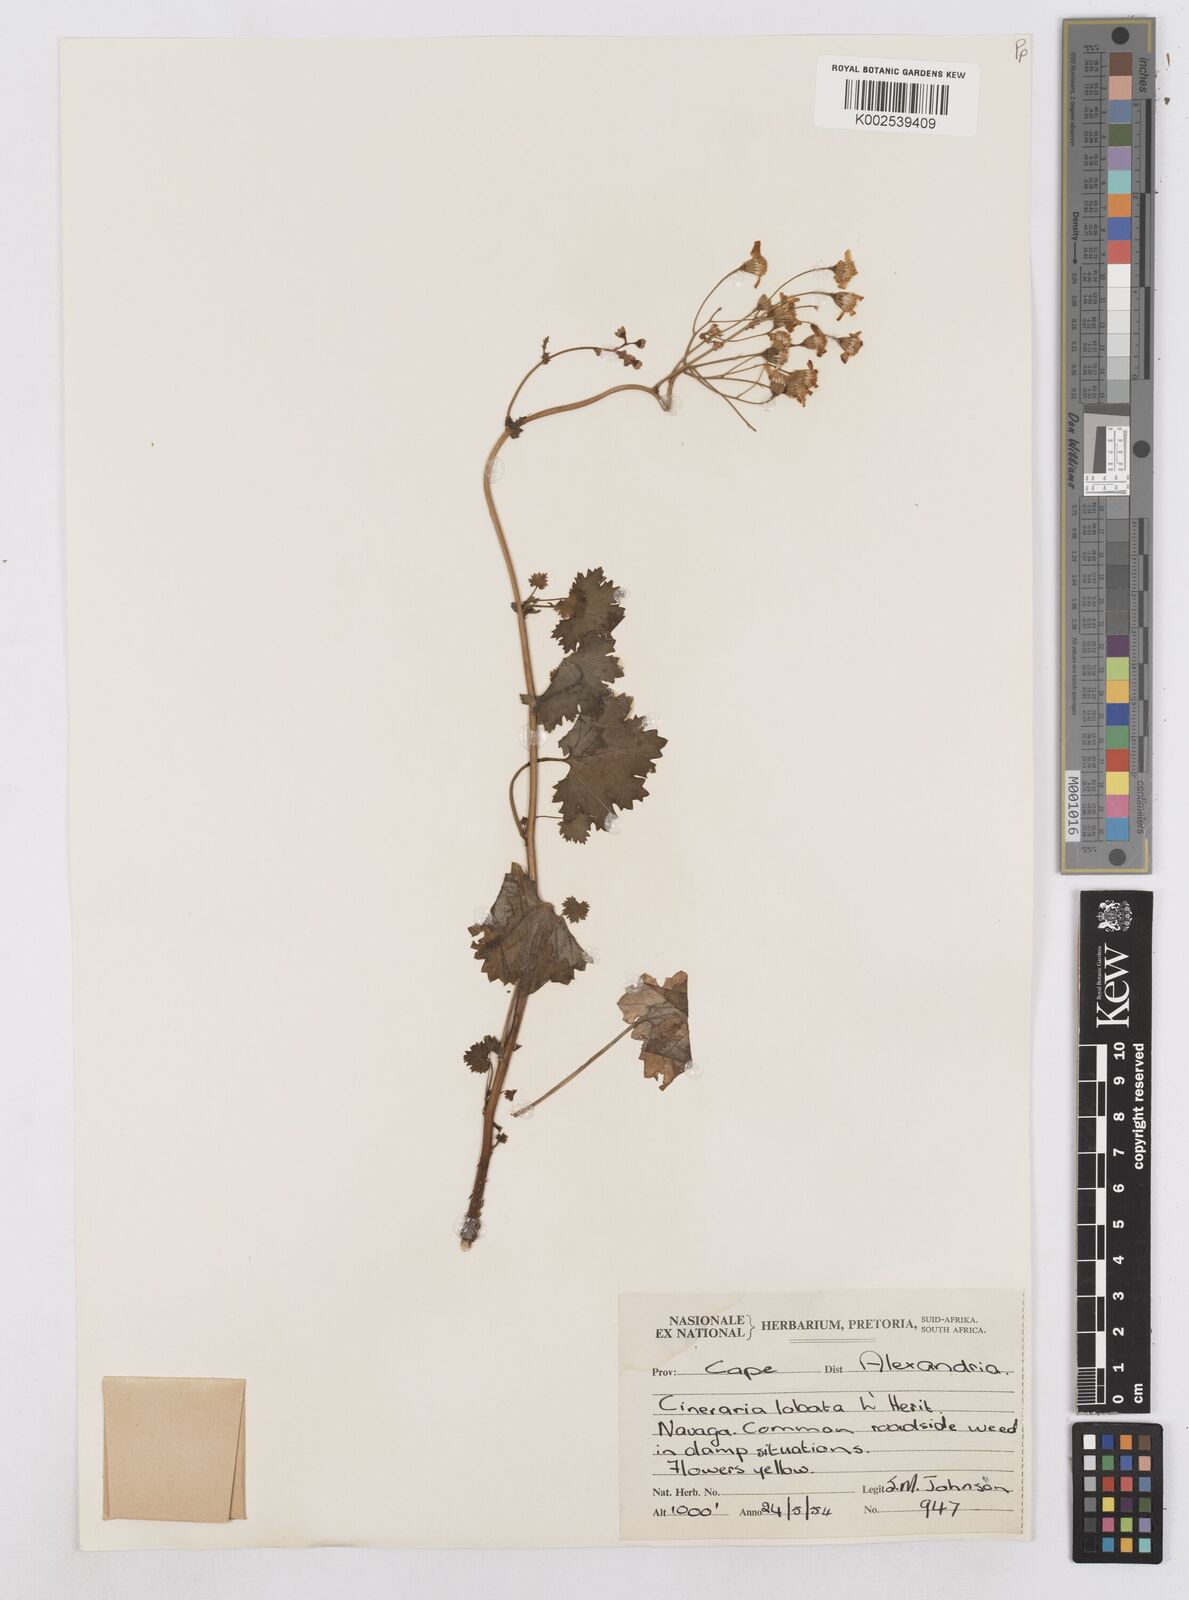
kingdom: Plantae
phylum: Tracheophyta
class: Magnoliopsida
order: Asterales
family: Asteraceae
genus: Cineraria
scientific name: Cineraria
